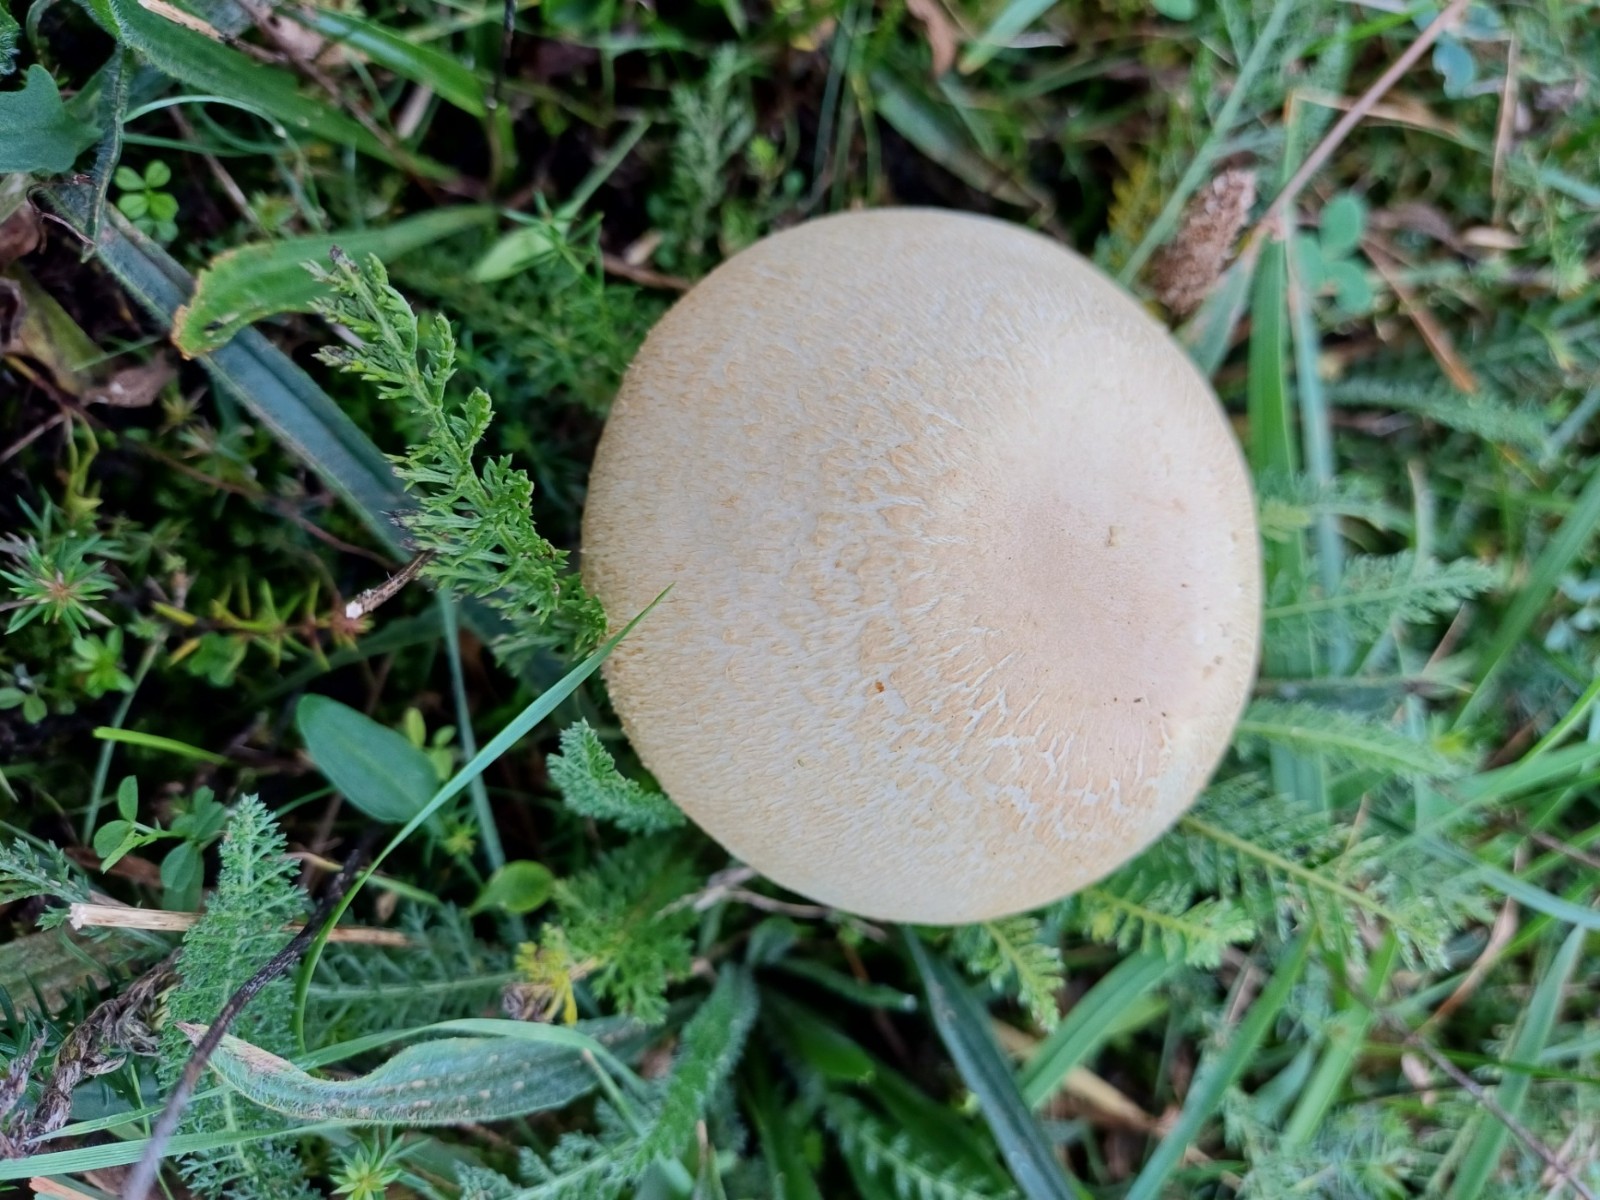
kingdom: Fungi
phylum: Basidiomycota
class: Agaricomycetes
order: Agaricales
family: Agaricaceae
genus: Agaricus
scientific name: Agaricus
